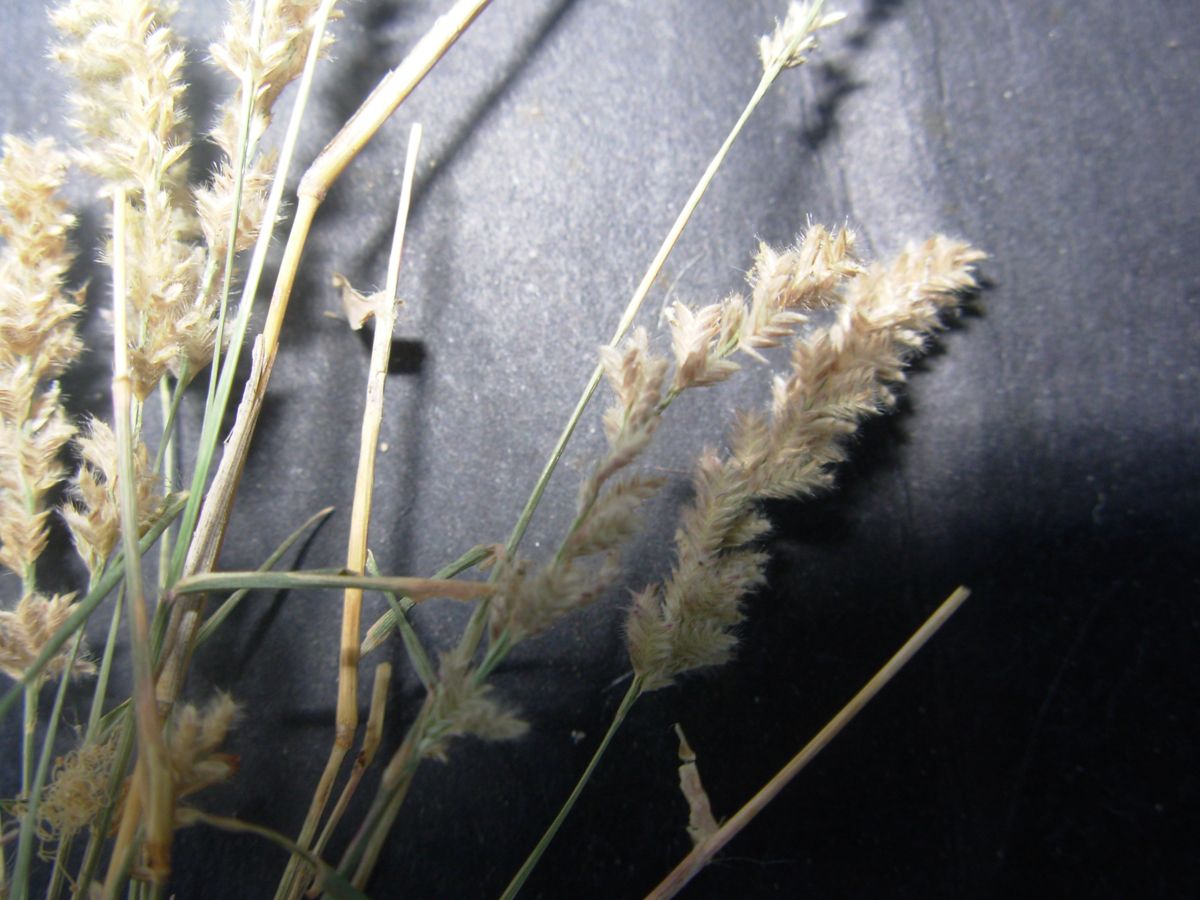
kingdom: Plantae
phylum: Tracheophyta
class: Liliopsida
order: Poales
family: Poaceae
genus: Eragrostis
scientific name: Eragrostis ciliaris
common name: Gophertail lovegrass
